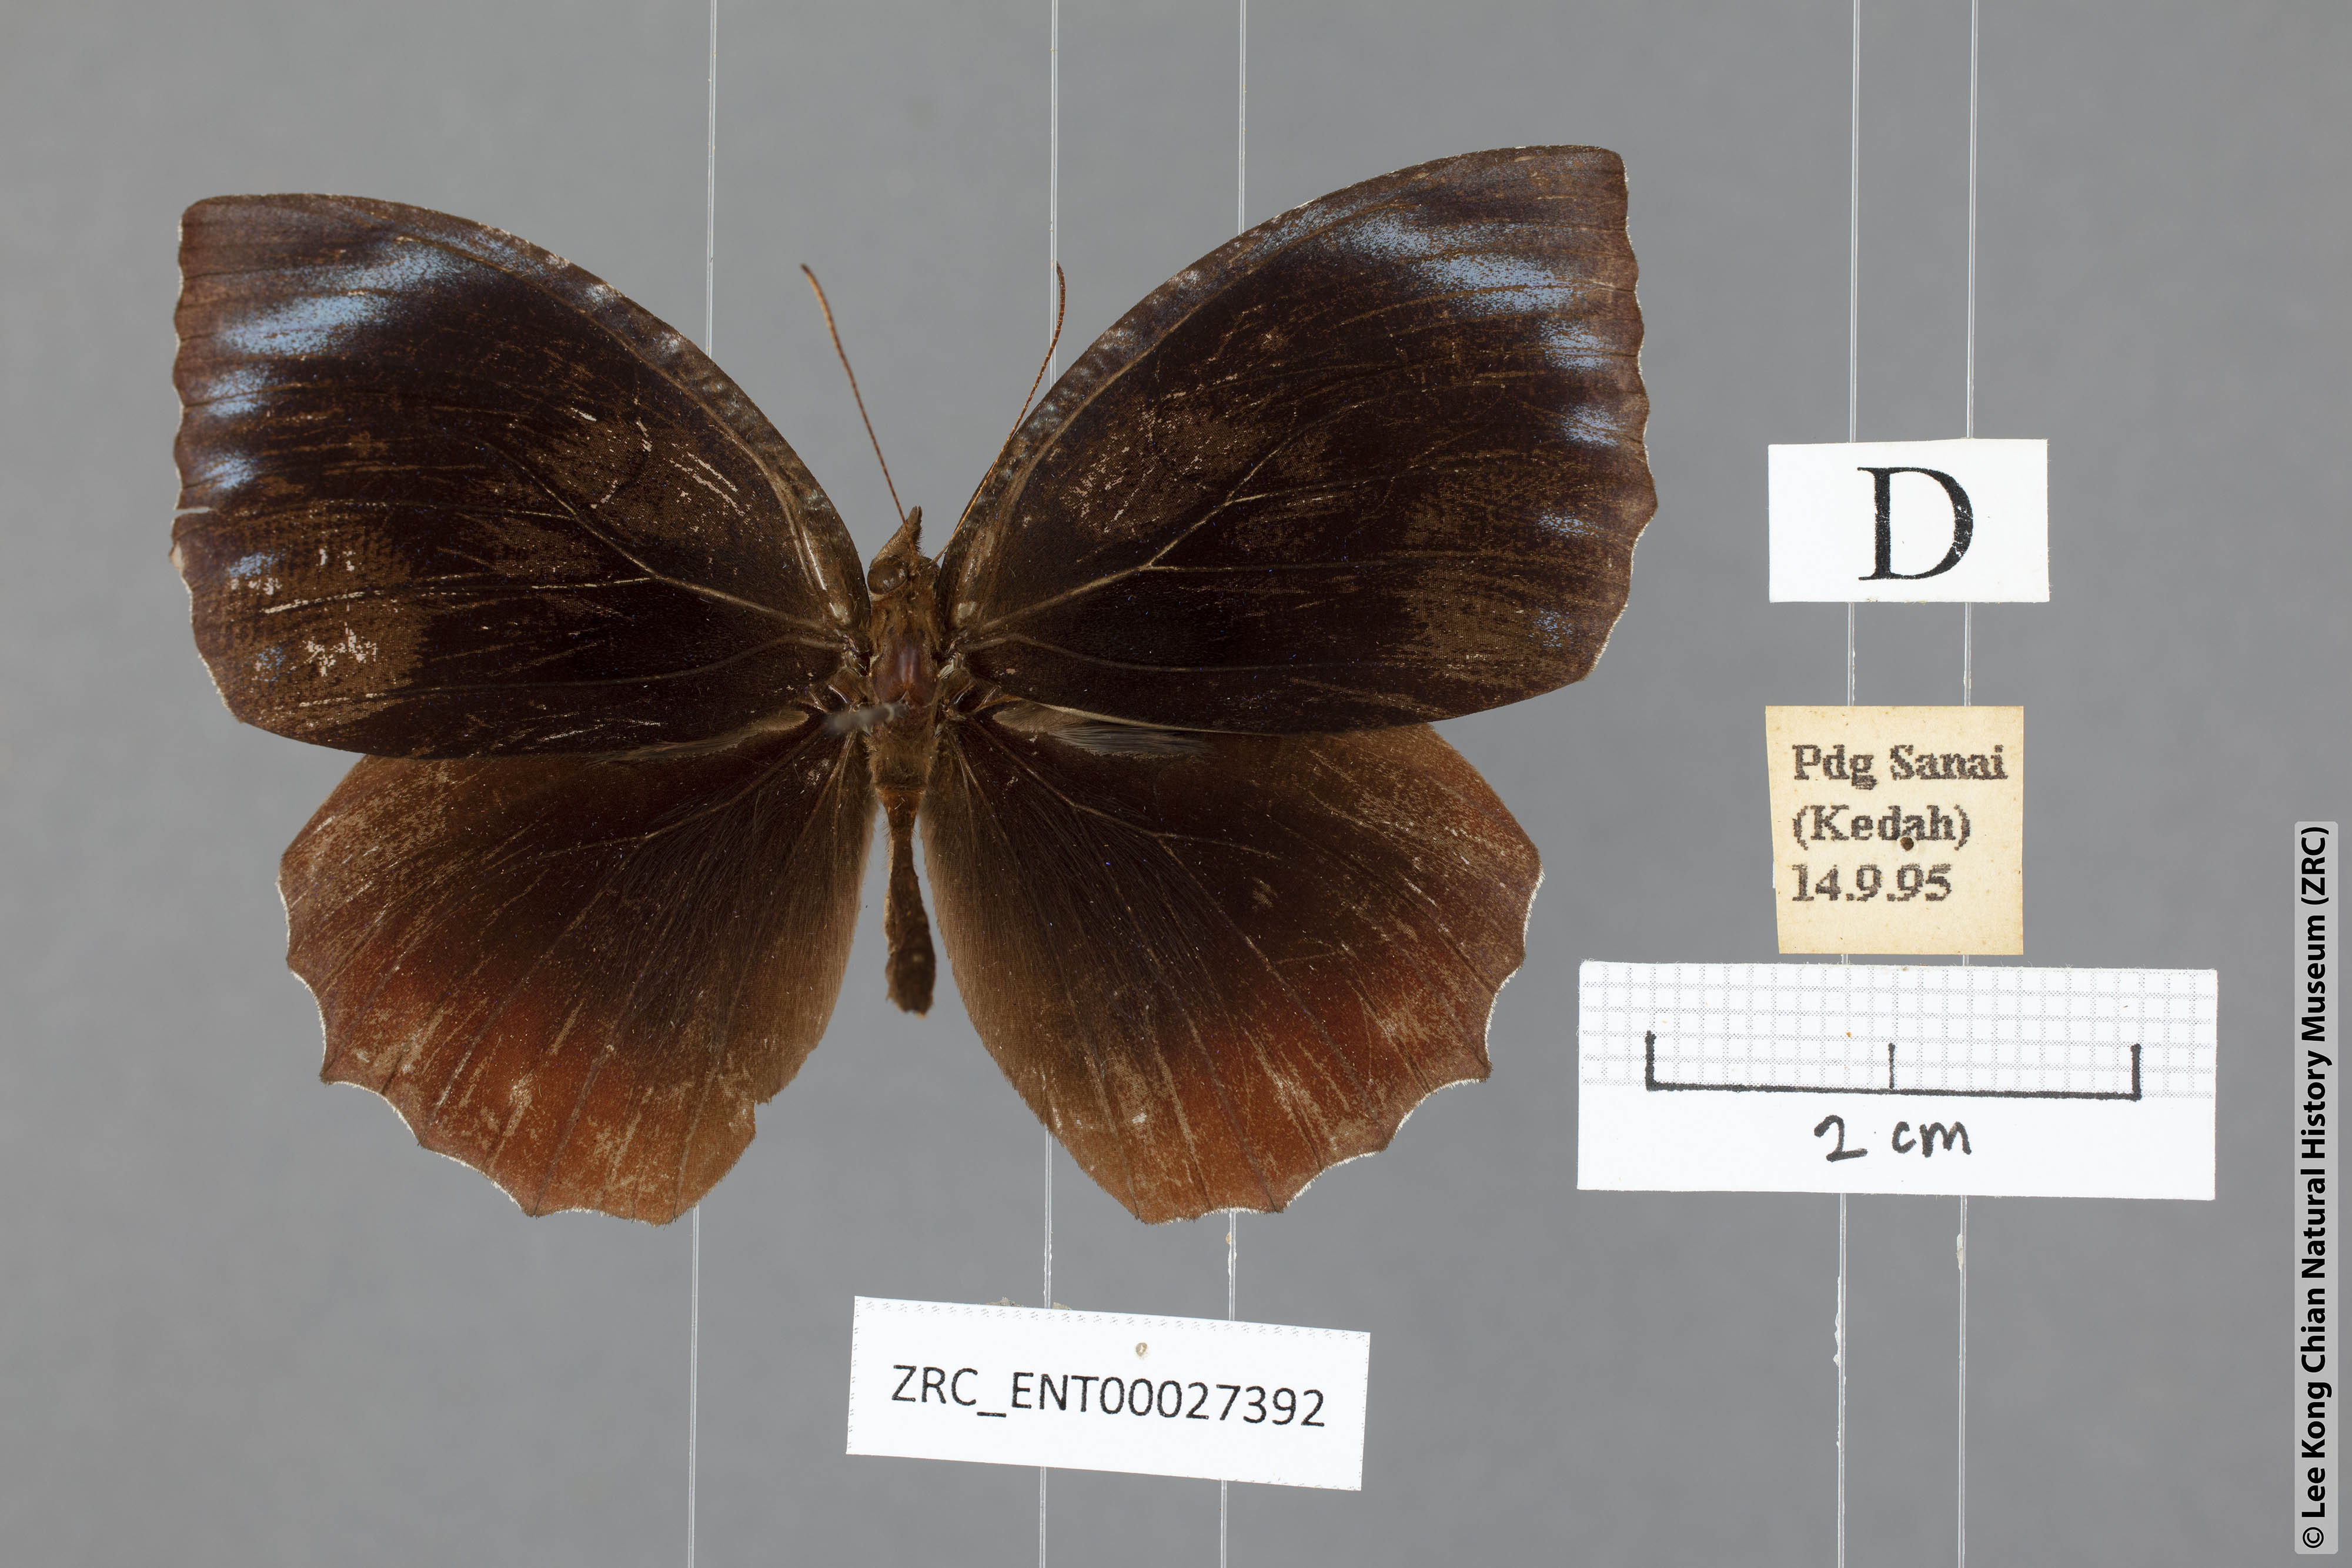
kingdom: Animalia
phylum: Arthropoda
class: Insecta
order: Lepidoptera
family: Nymphalidae
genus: Elymnias
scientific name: Elymnias hypermnestra
